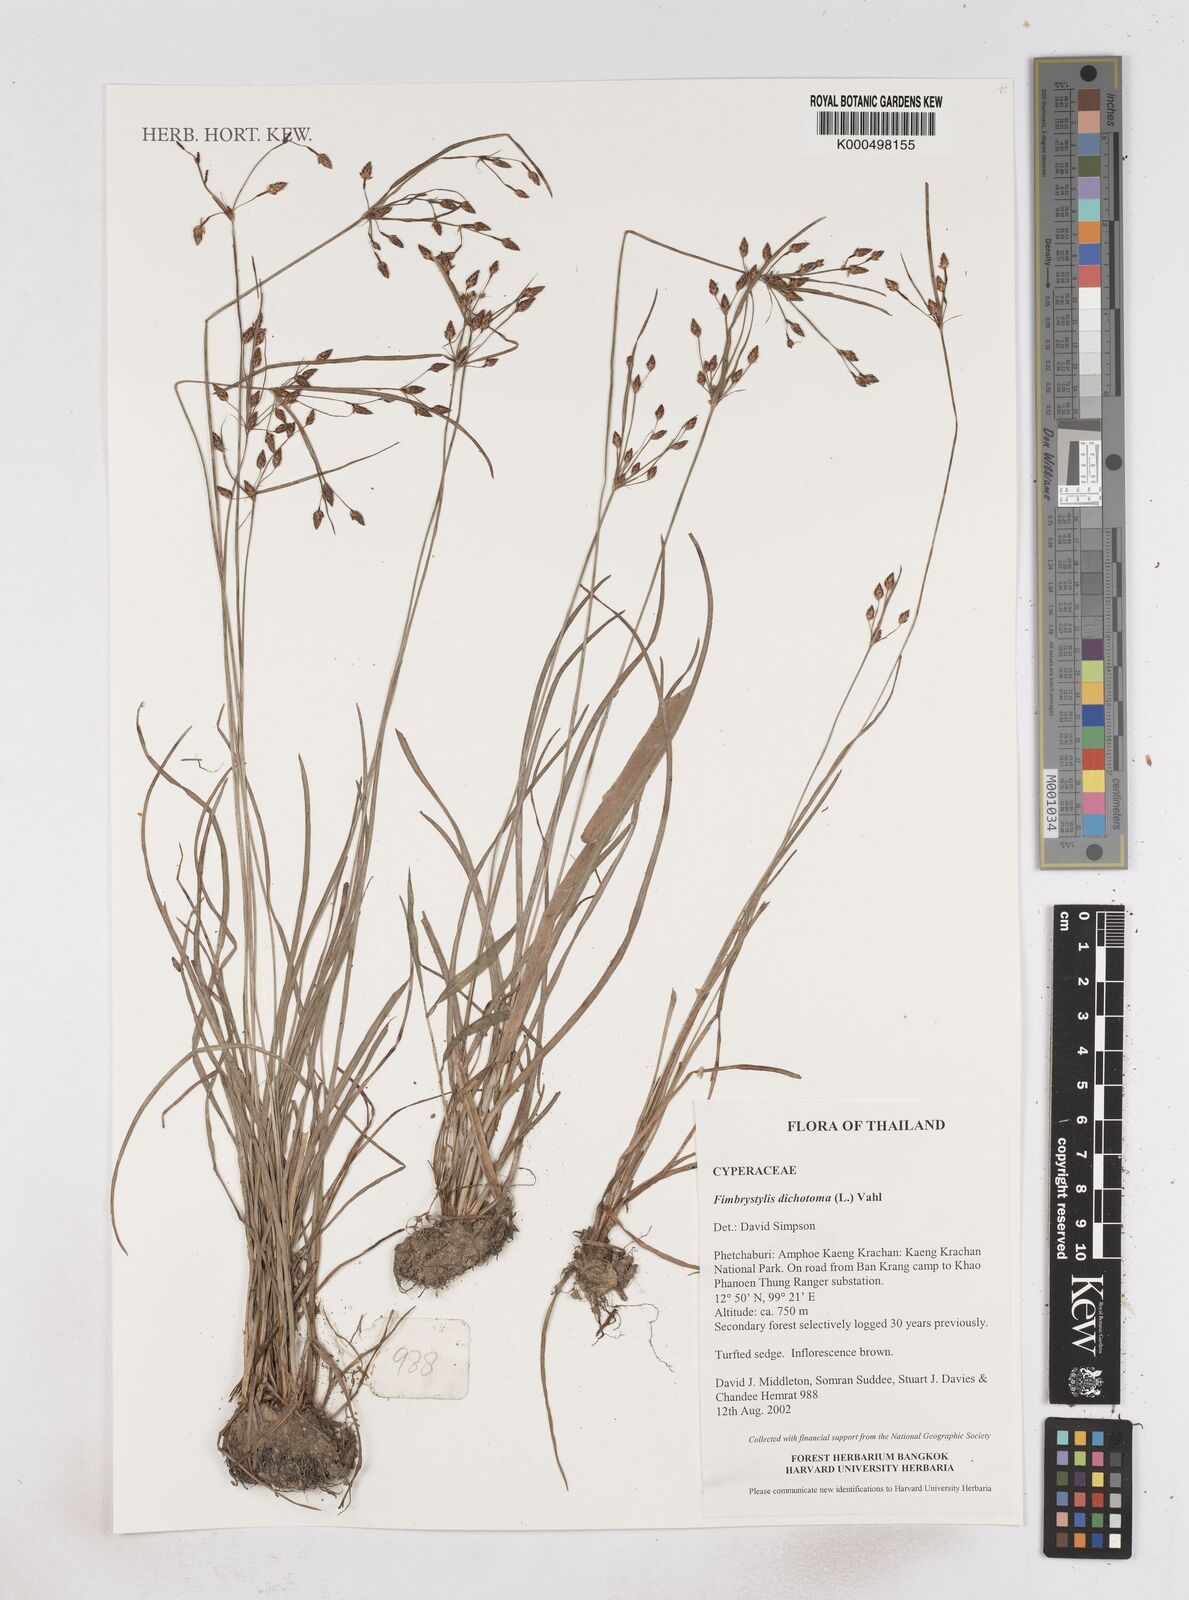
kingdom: Plantae
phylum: Tracheophyta
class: Liliopsida
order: Poales
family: Cyperaceae
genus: Fimbristylis
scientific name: Fimbristylis dichotoma
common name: Forked fimbry
